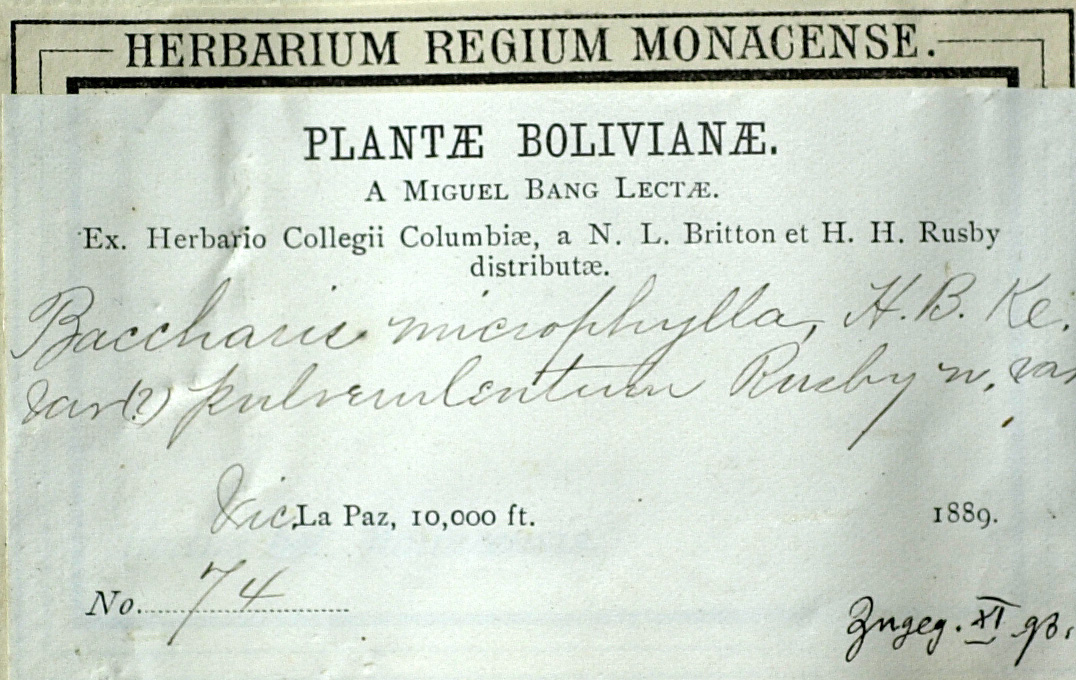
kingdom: Plantae
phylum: Tracheophyta
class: Magnoliopsida
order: Asterales
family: Asteraceae
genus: Baccharis
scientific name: Baccharis tricuneata
